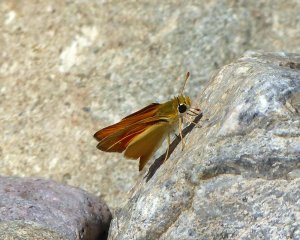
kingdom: Animalia
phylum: Arthropoda
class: Insecta
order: Lepidoptera
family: Hesperiidae
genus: Copaeodes
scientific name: Copaeodes aurantiaca
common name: Orange Skipperling
